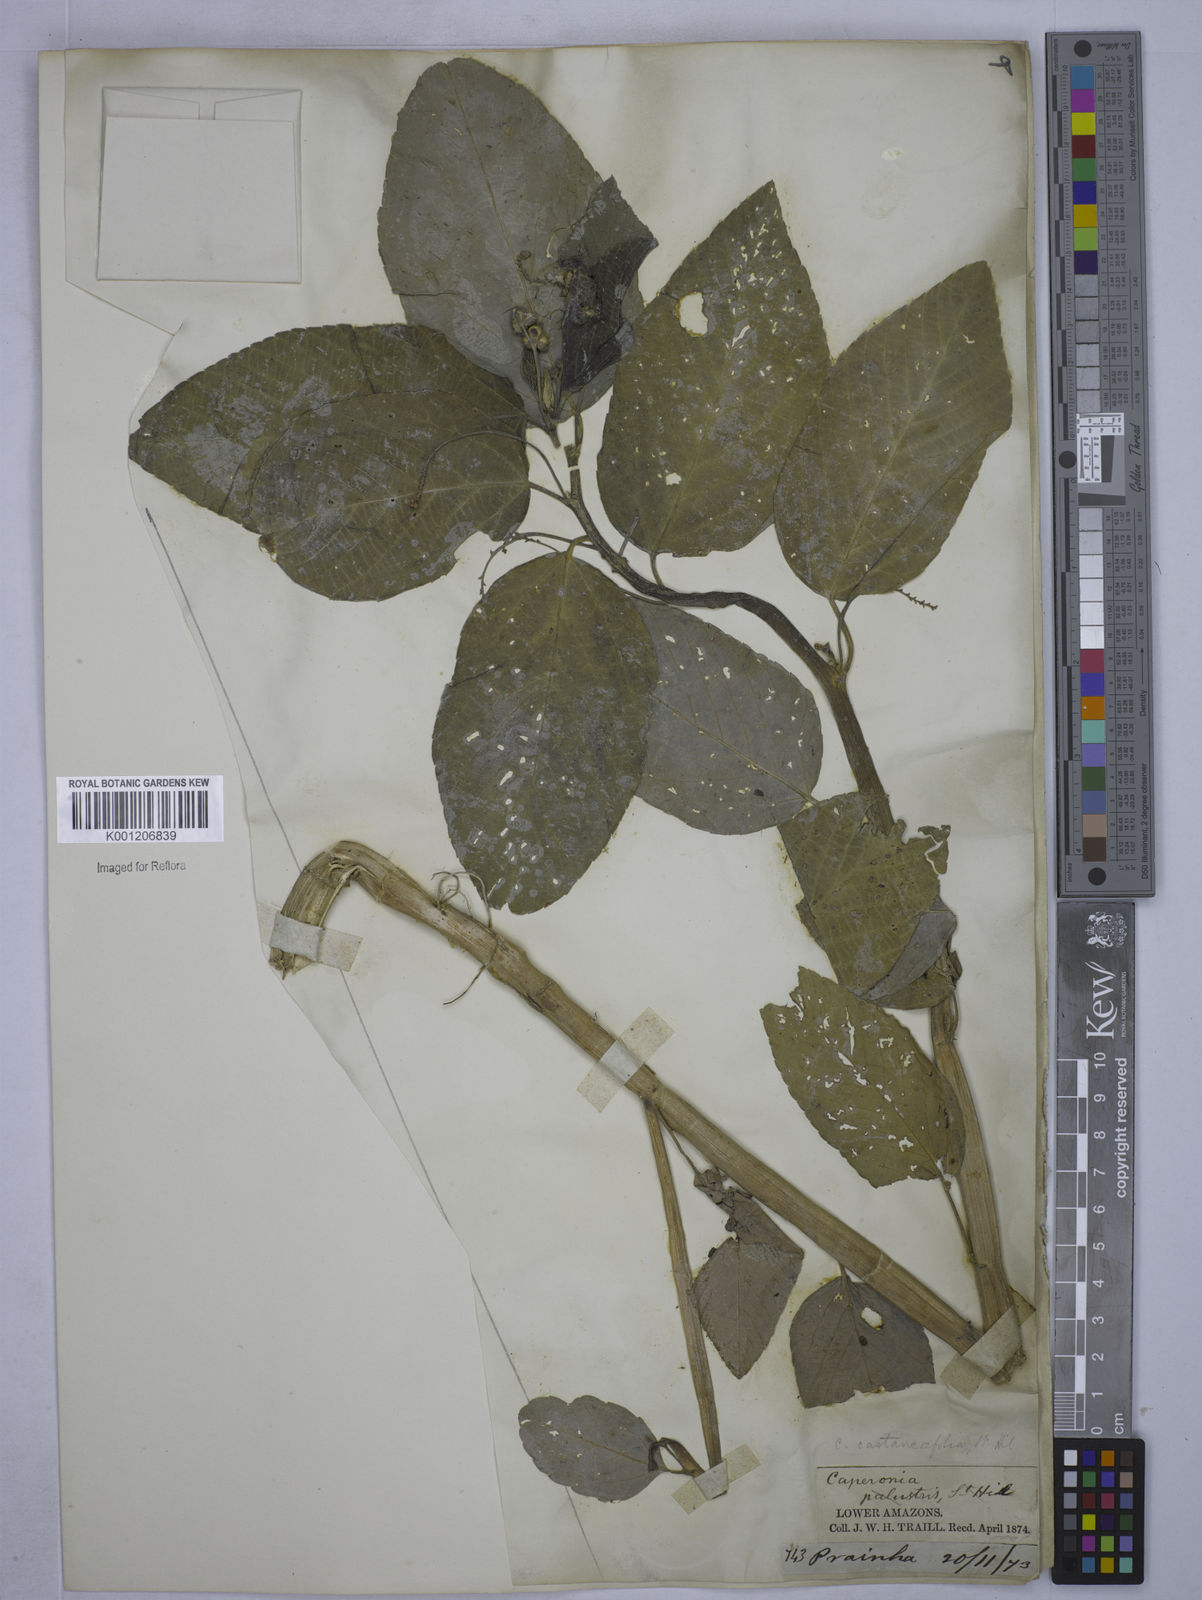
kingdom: Plantae
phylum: Tracheophyta
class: Magnoliopsida
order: Malpighiales
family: Euphorbiaceae
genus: Caperonia
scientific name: Caperonia castaneifolia
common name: Chestnutleaf false croton
